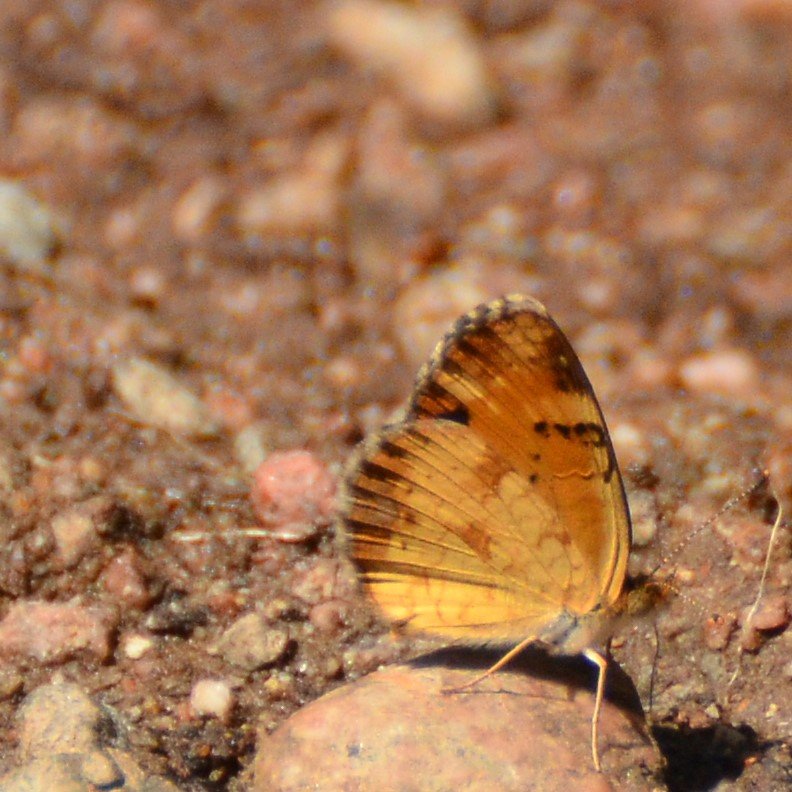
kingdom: Animalia
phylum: Arthropoda
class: Insecta
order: Lepidoptera
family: Nymphalidae
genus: Phyciodes
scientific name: Phyciodes tharos
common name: Northern Crescent
